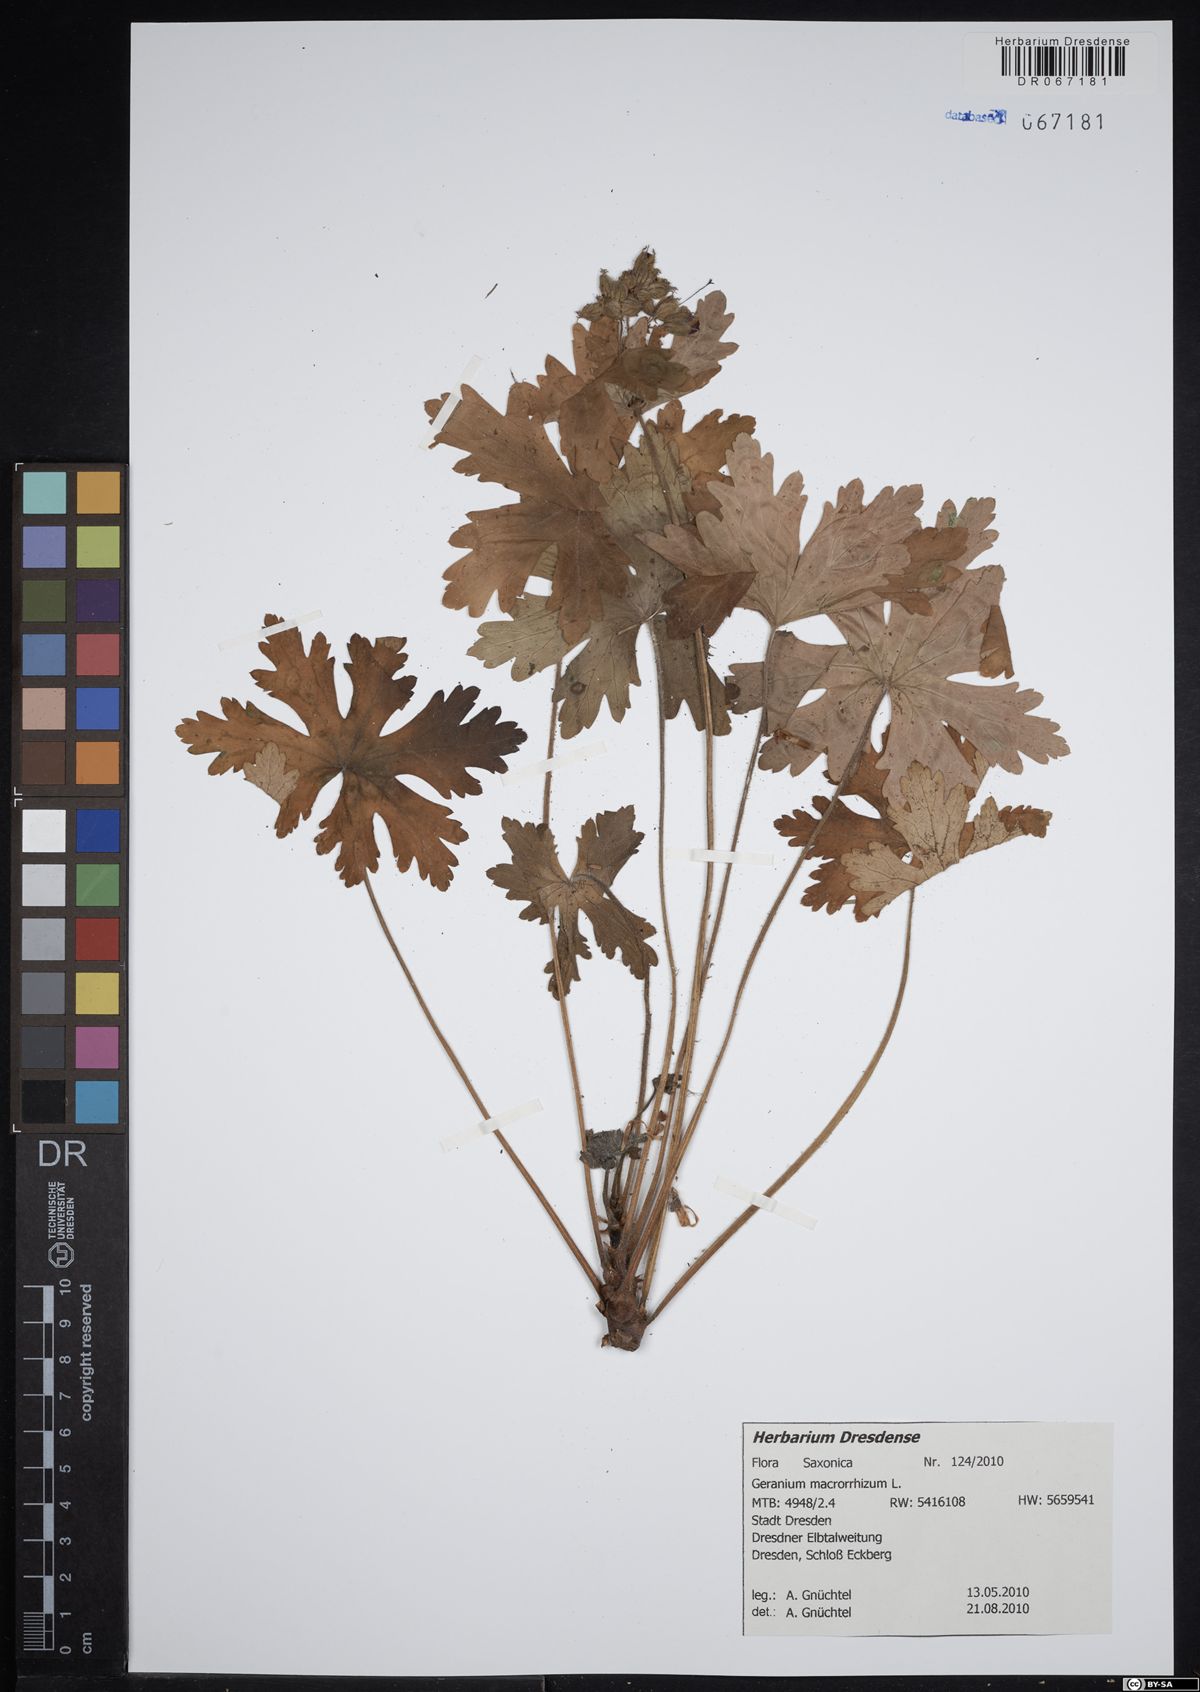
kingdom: Plantae
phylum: Tracheophyta
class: Magnoliopsida
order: Geraniales
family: Geraniaceae
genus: Geranium
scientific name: Geranium macrorrhizum
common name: Rock crane's-bill
